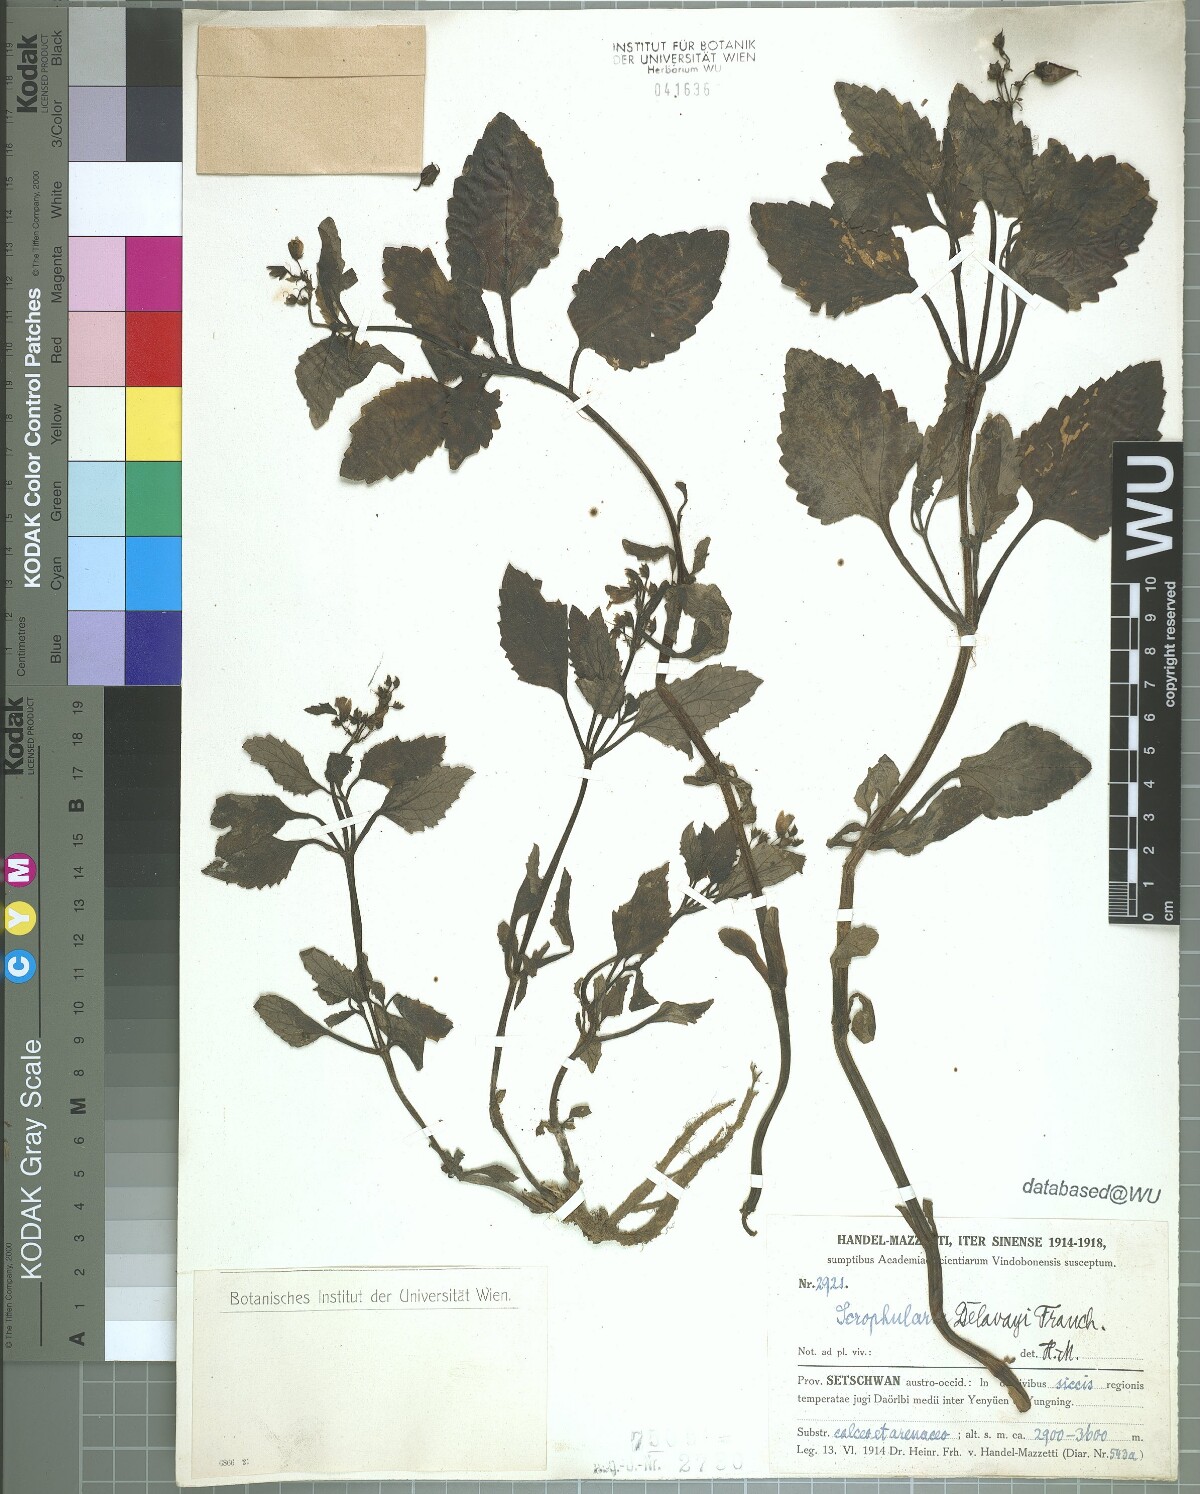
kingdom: Plantae
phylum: Tracheophyta
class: Magnoliopsida
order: Lamiales
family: Scrophulariaceae
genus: Scrophularia
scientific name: Scrophularia delavayi
